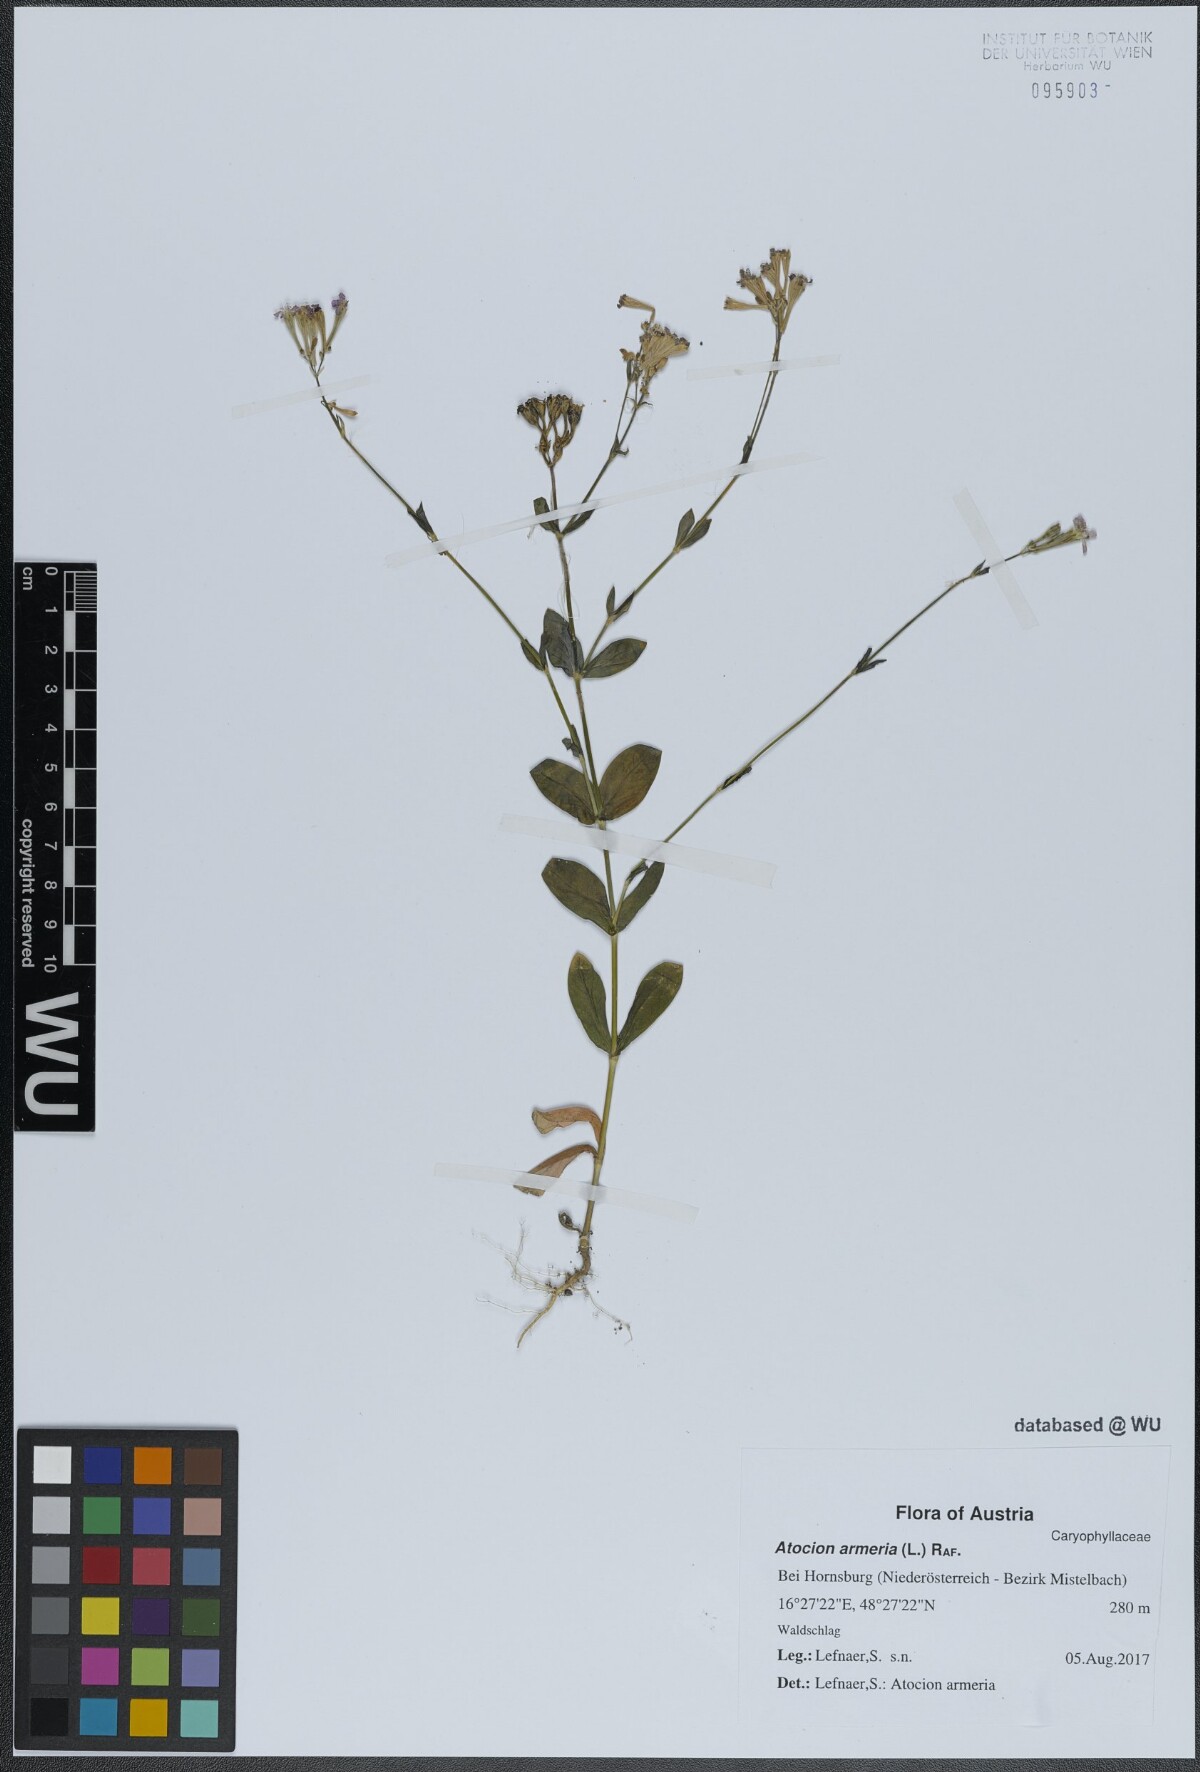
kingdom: Plantae
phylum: Tracheophyta
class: Magnoliopsida
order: Caryophyllales
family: Caryophyllaceae
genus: Atocion
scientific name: Atocion armeria
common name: Sweet william catchfly
